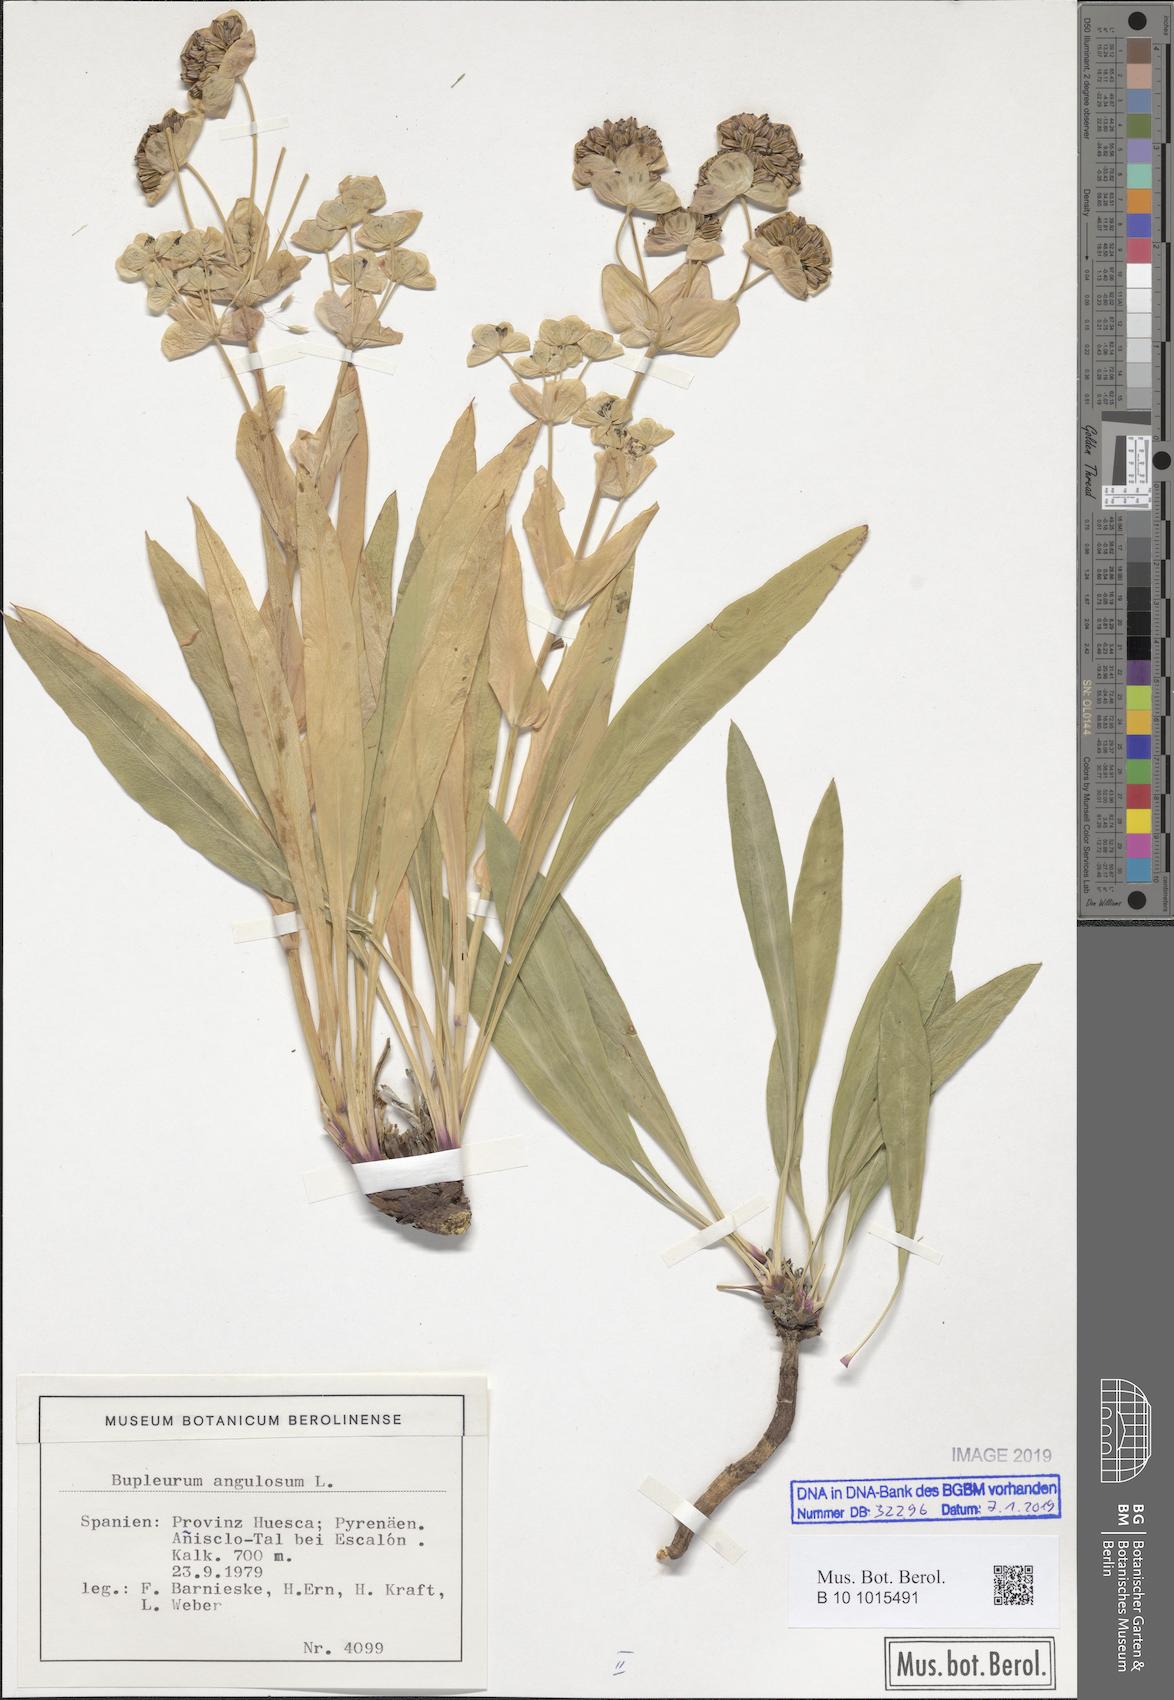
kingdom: Plantae
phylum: Tracheophyta
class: Magnoliopsida
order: Apiales
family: Apiaceae
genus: Bupleurum
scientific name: Bupleurum angulosum
